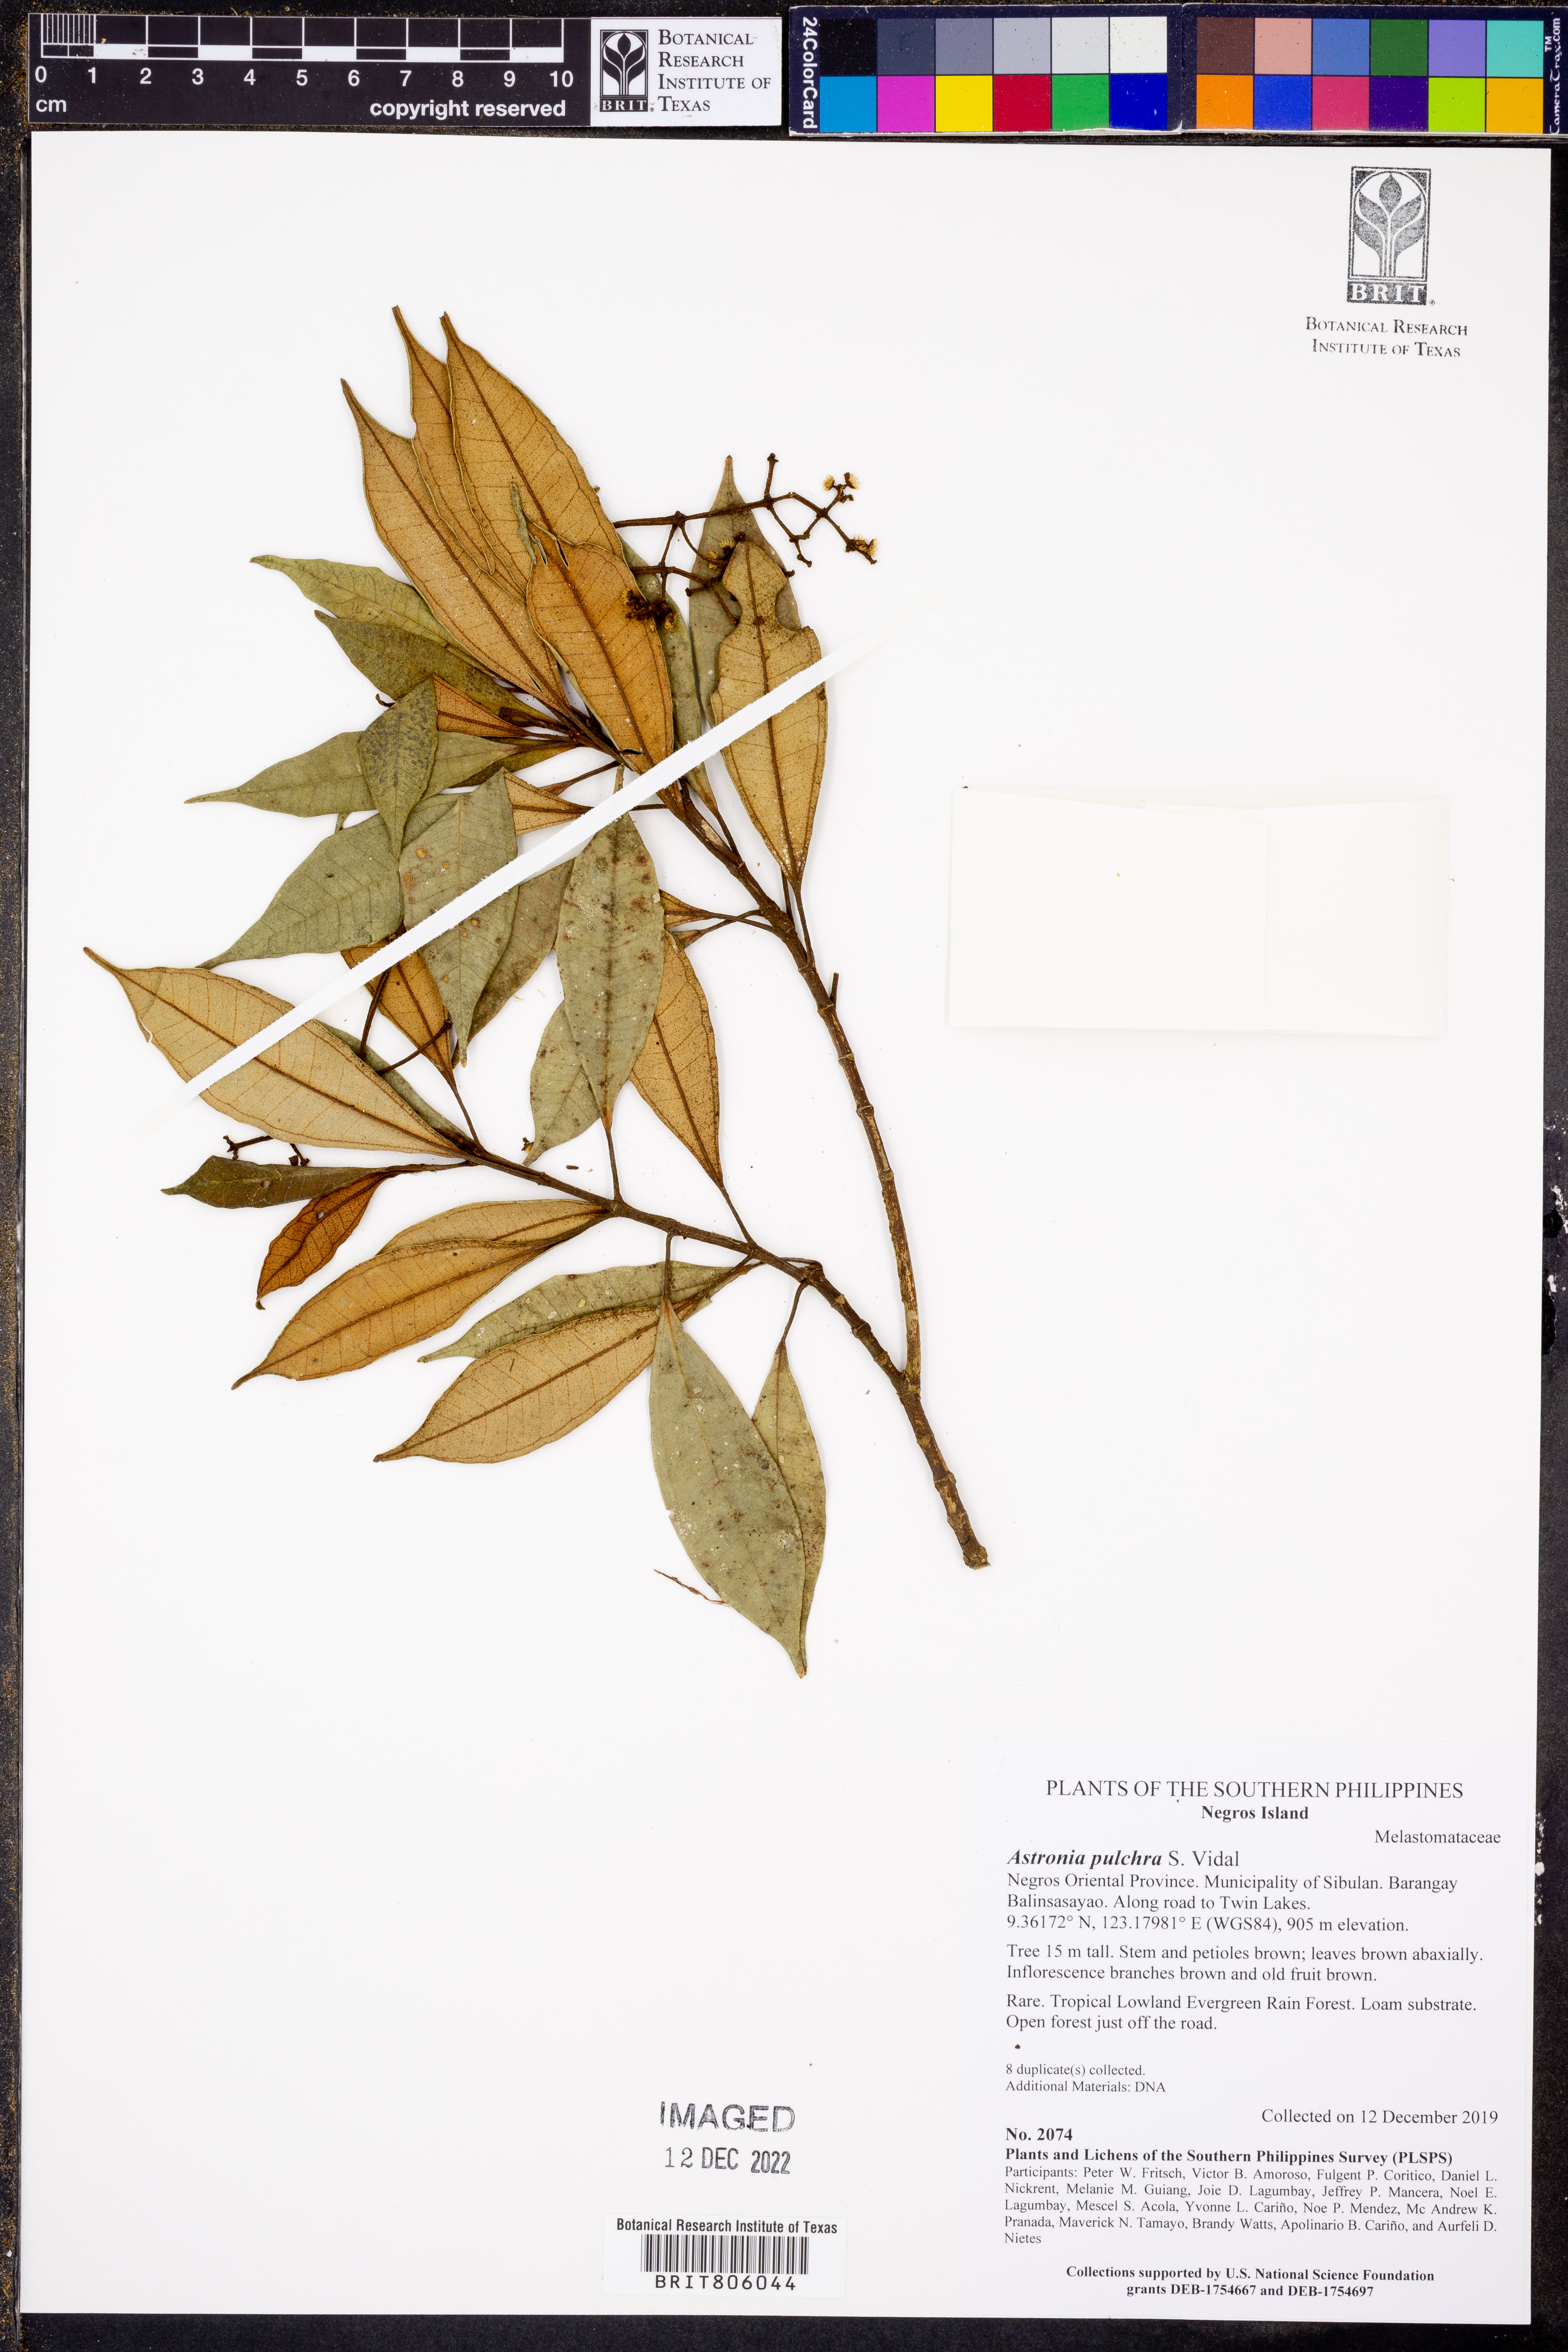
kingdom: Plantae
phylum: Tracheophyta
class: Magnoliopsida
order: Myrtales
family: Melastomataceae
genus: Astronia
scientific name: Astronia pulchra
